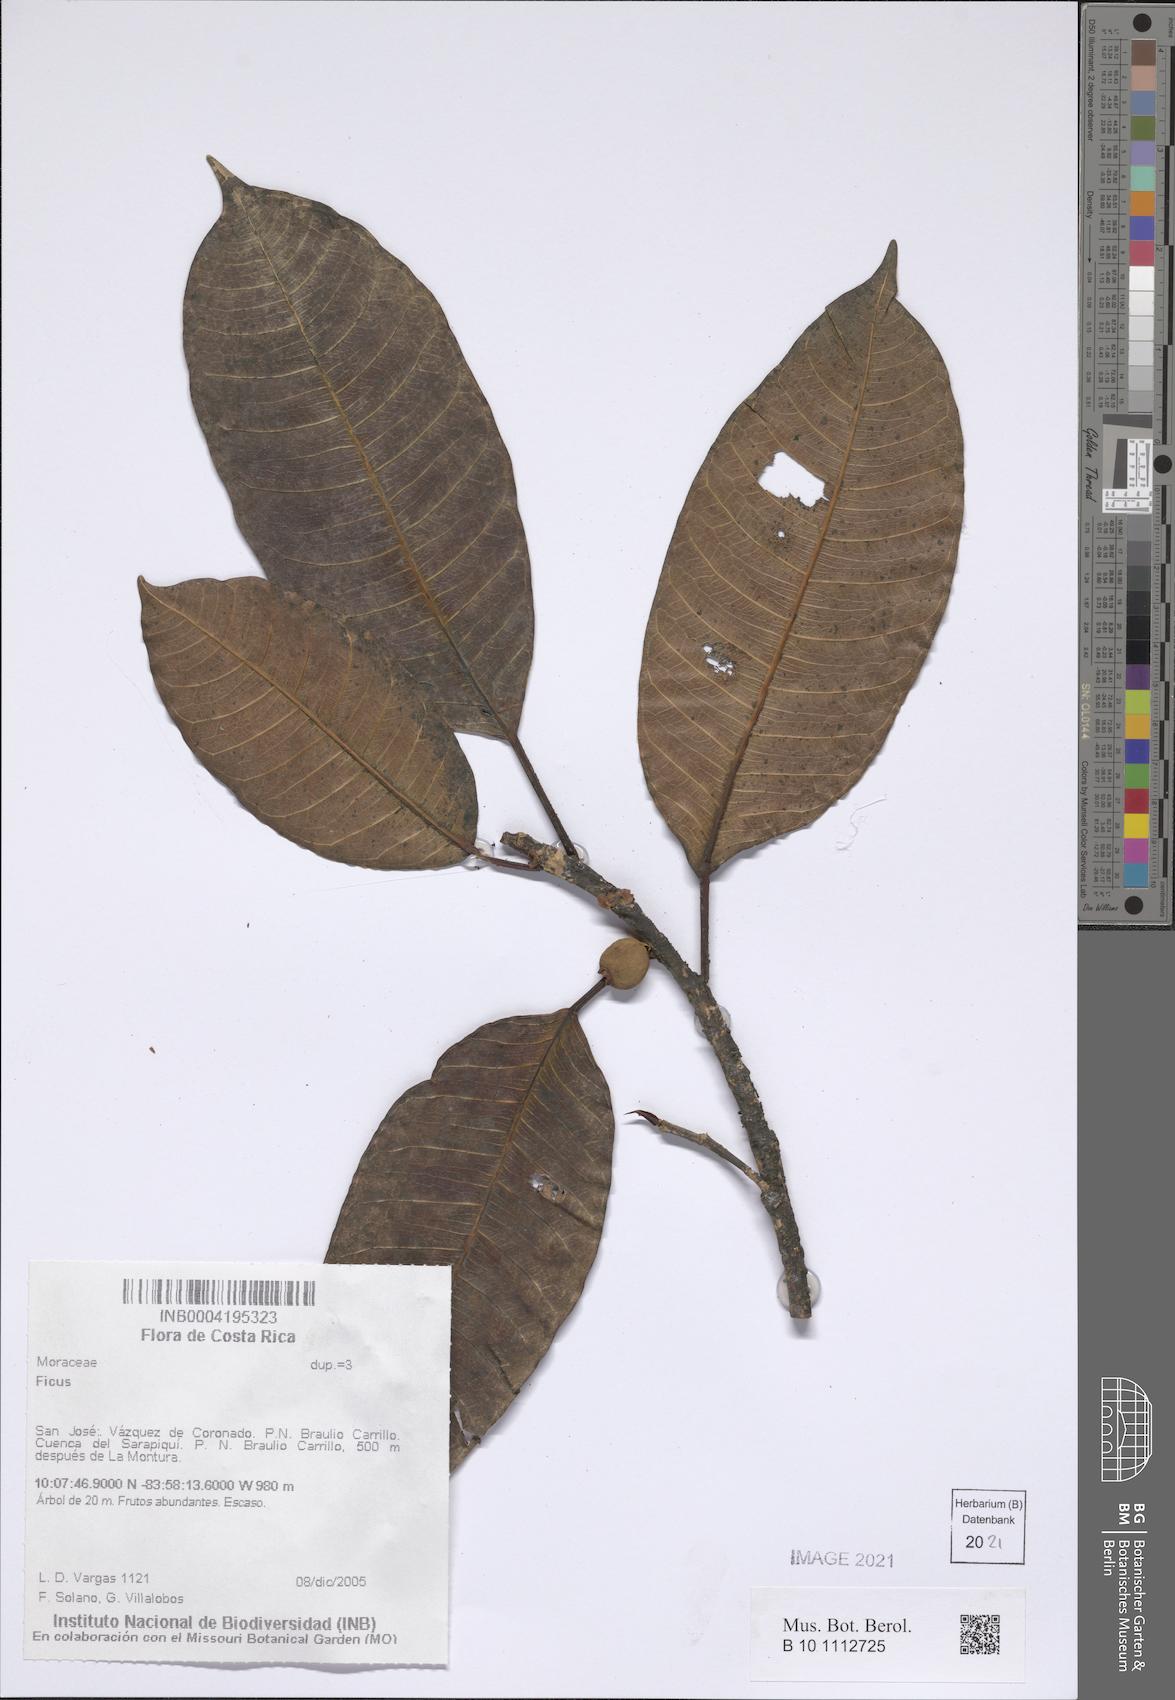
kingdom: Plantae
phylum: Tracheophyta
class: Magnoliopsida
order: Rosales
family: Moraceae
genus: Ficus
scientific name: Ficus
